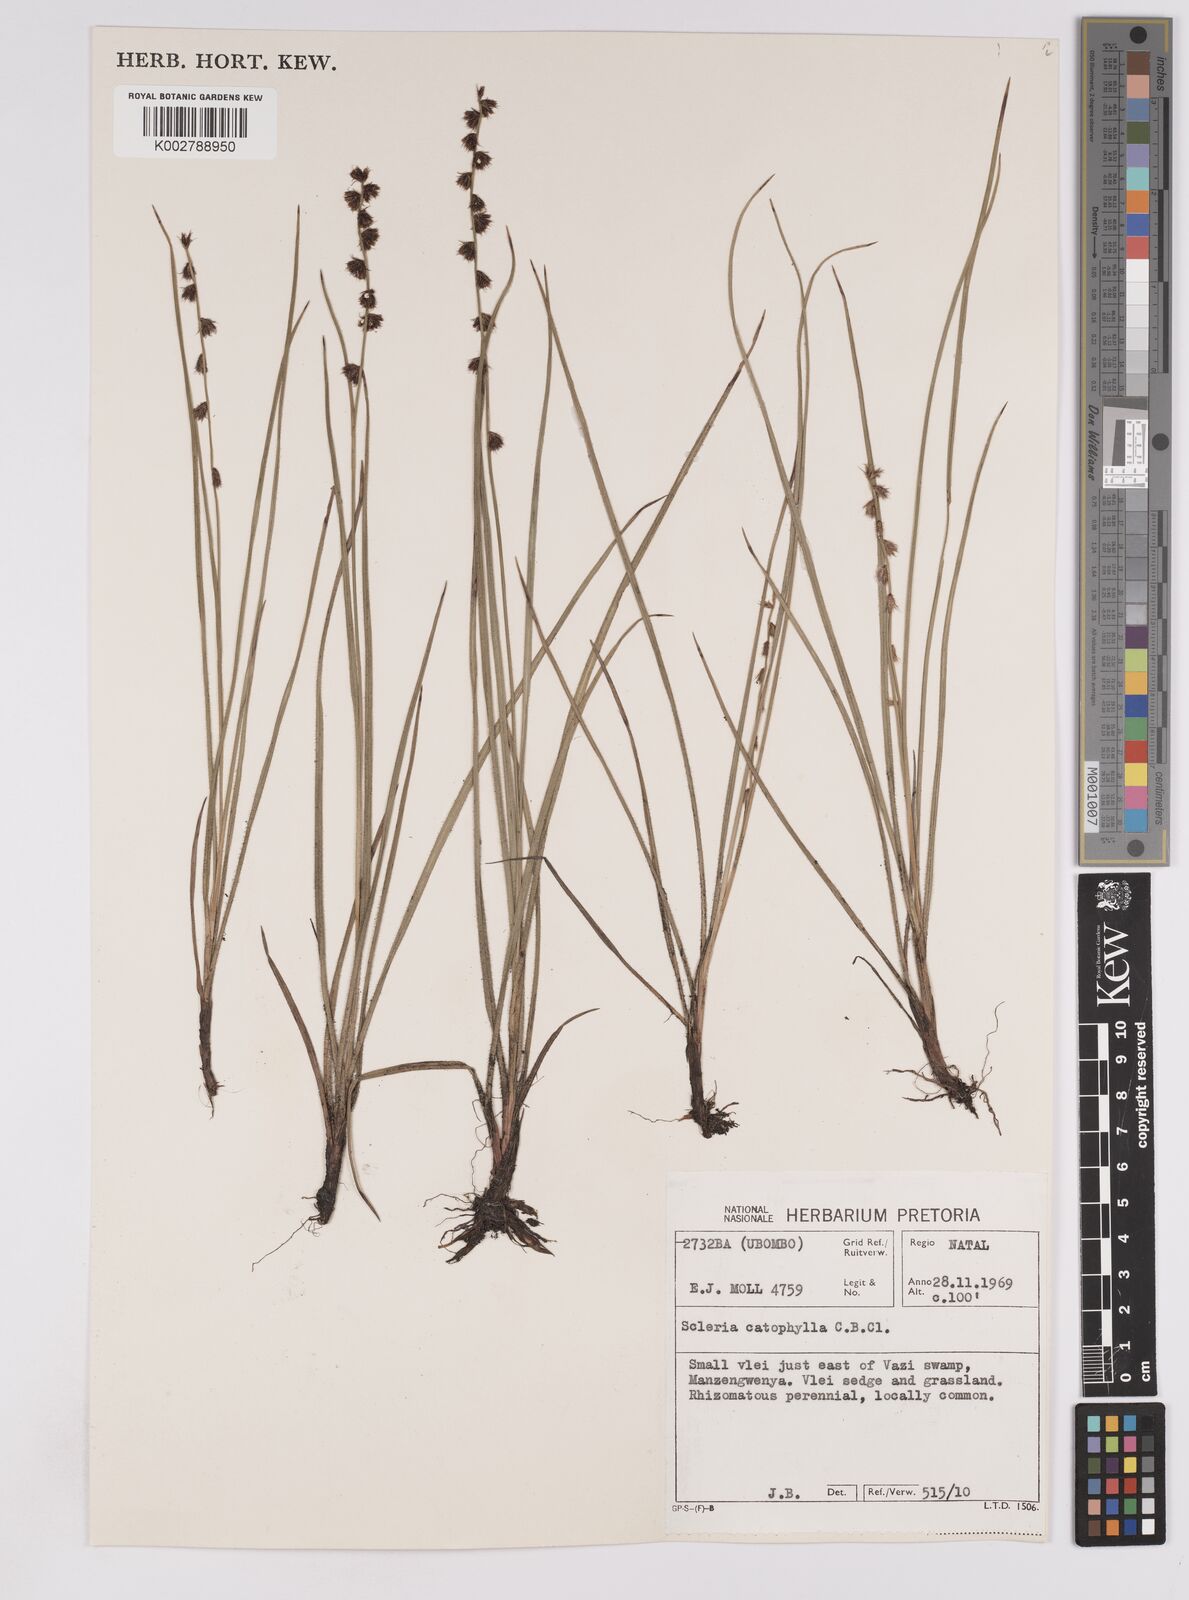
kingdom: Plantae
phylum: Tracheophyta
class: Liliopsida
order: Poales
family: Cyperaceae
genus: Scleria
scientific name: Scleria catophylla
